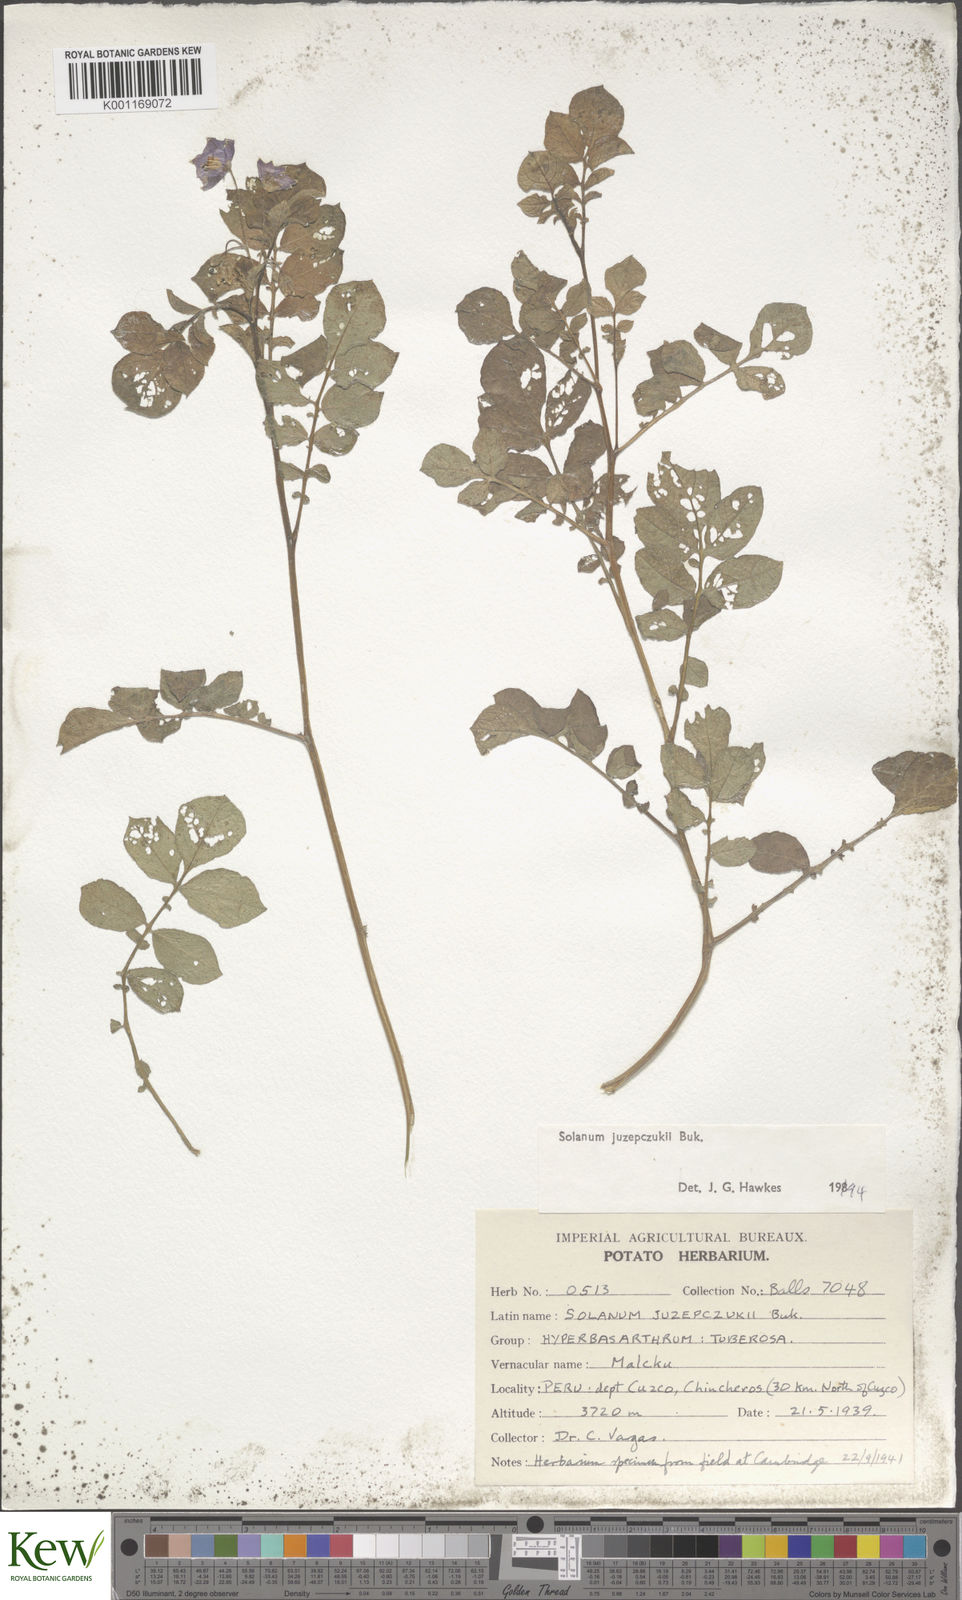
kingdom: Plantae
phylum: Tracheophyta
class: Magnoliopsida
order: Solanales
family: Solanaceae
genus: Solanum
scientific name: Solanum juzepczukii
